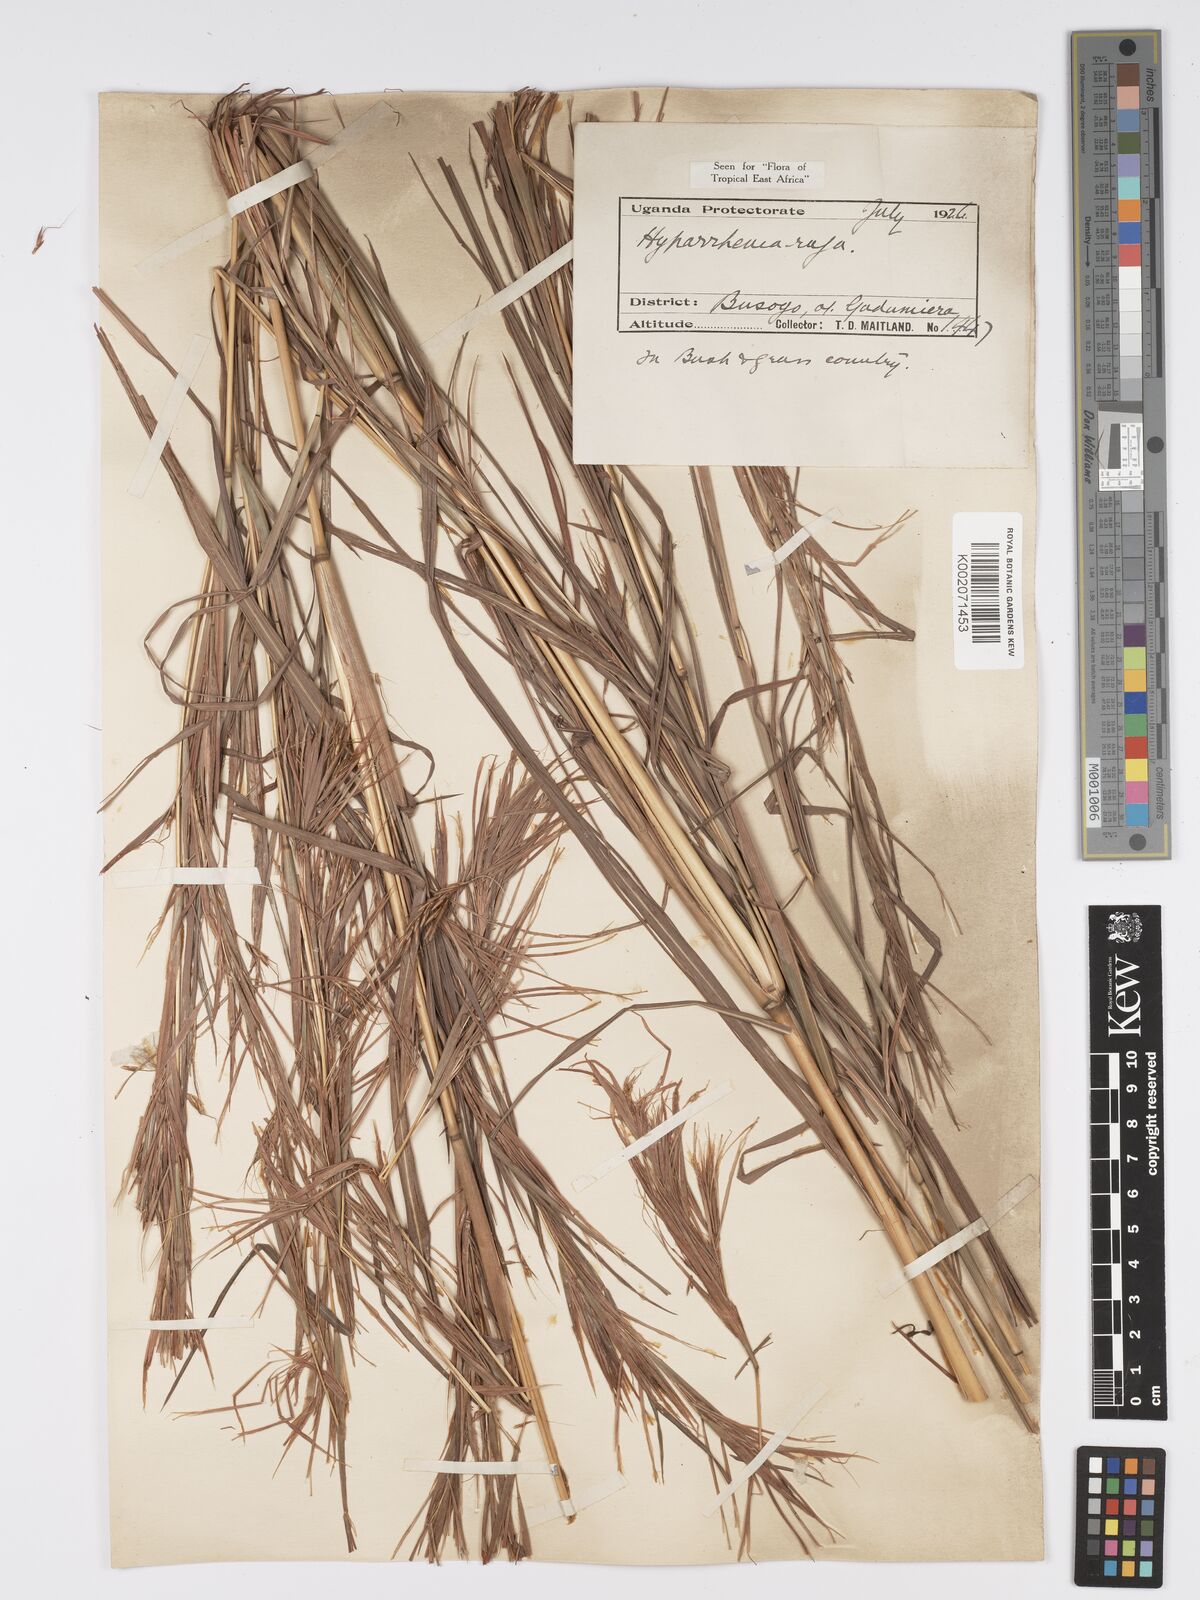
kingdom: Plantae
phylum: Tracheophyta
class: Liliopsida
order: Poales
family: Poaceae
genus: Hyparrhenia
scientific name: Hyparrhenia rufa
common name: Jaraguagrass
